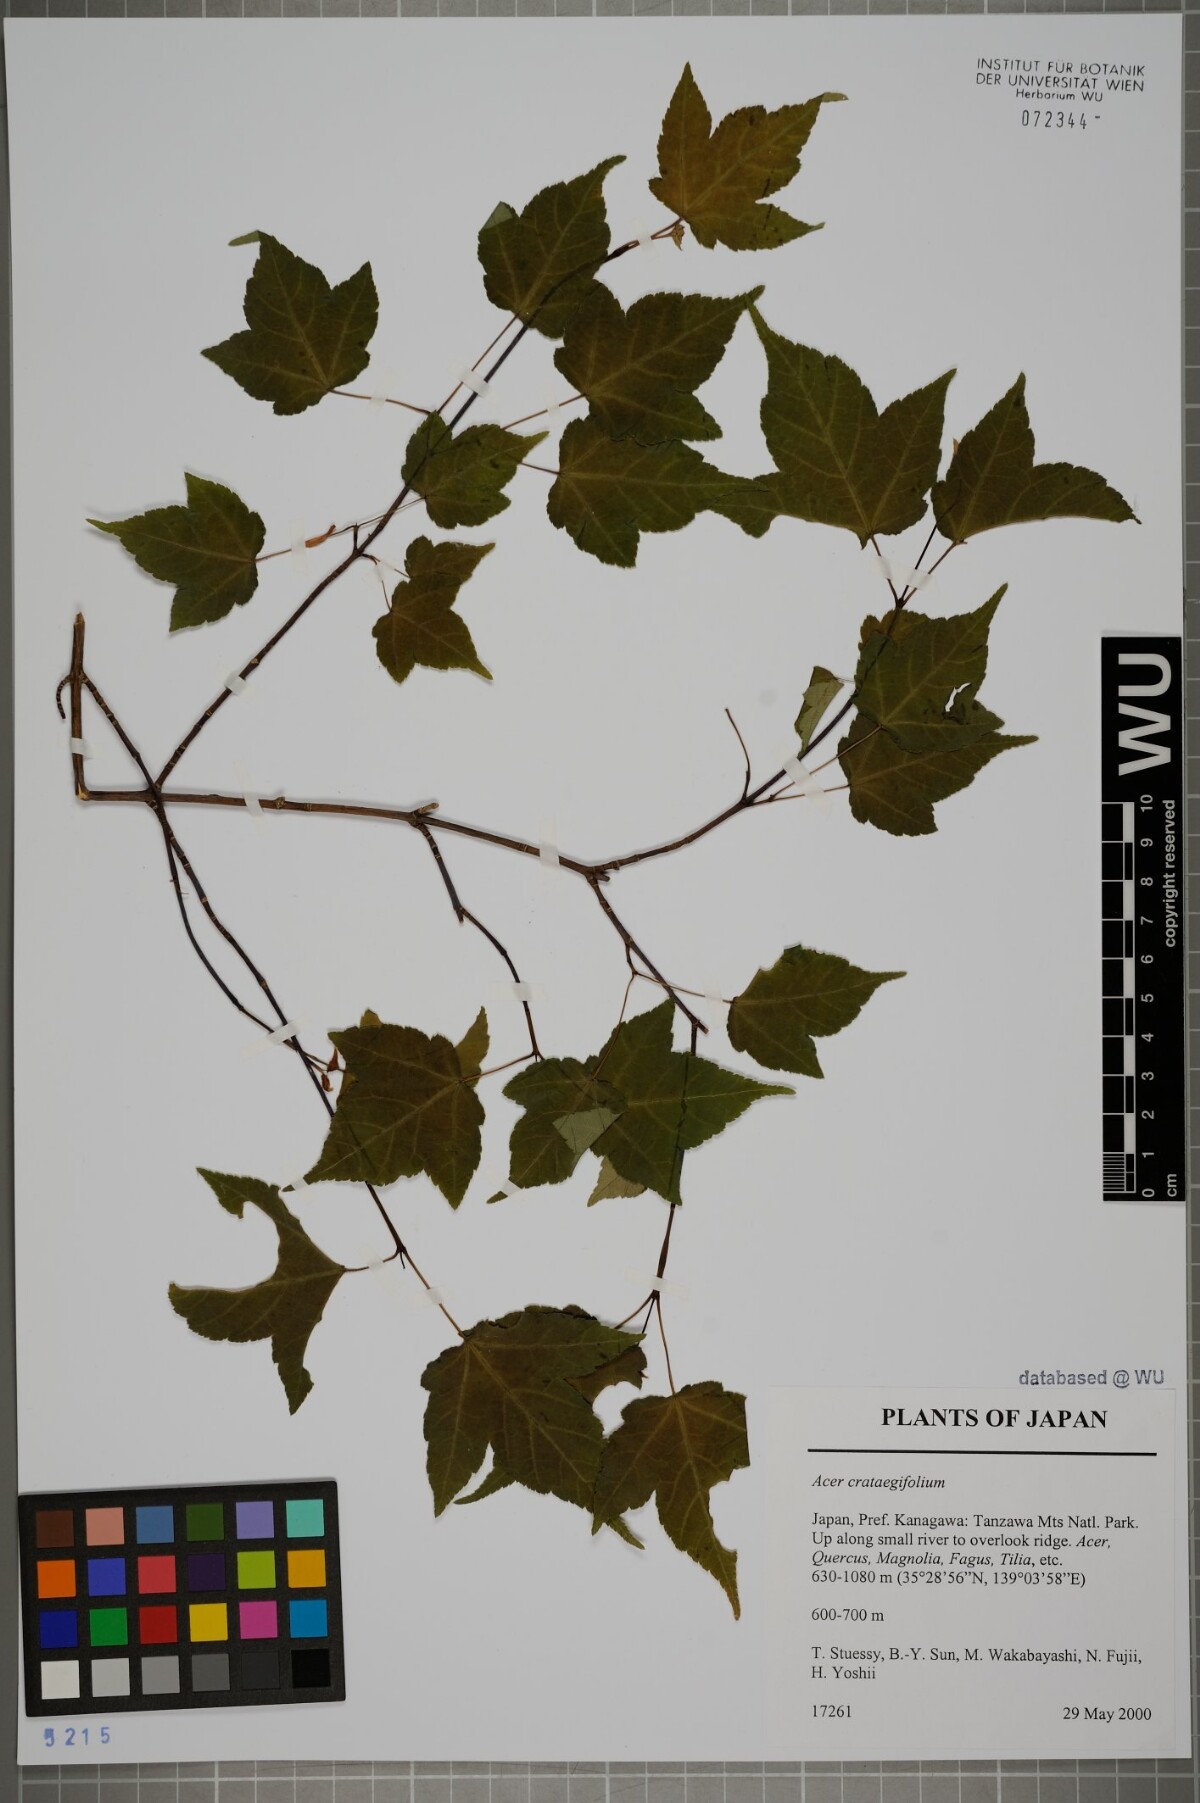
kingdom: Plantae
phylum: Tracheophyta
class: Magnoliopsida
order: Sapindales
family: Sapindaceae
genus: Acer
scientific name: Acer crataegifolium
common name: Hawthorn-leaf maple
